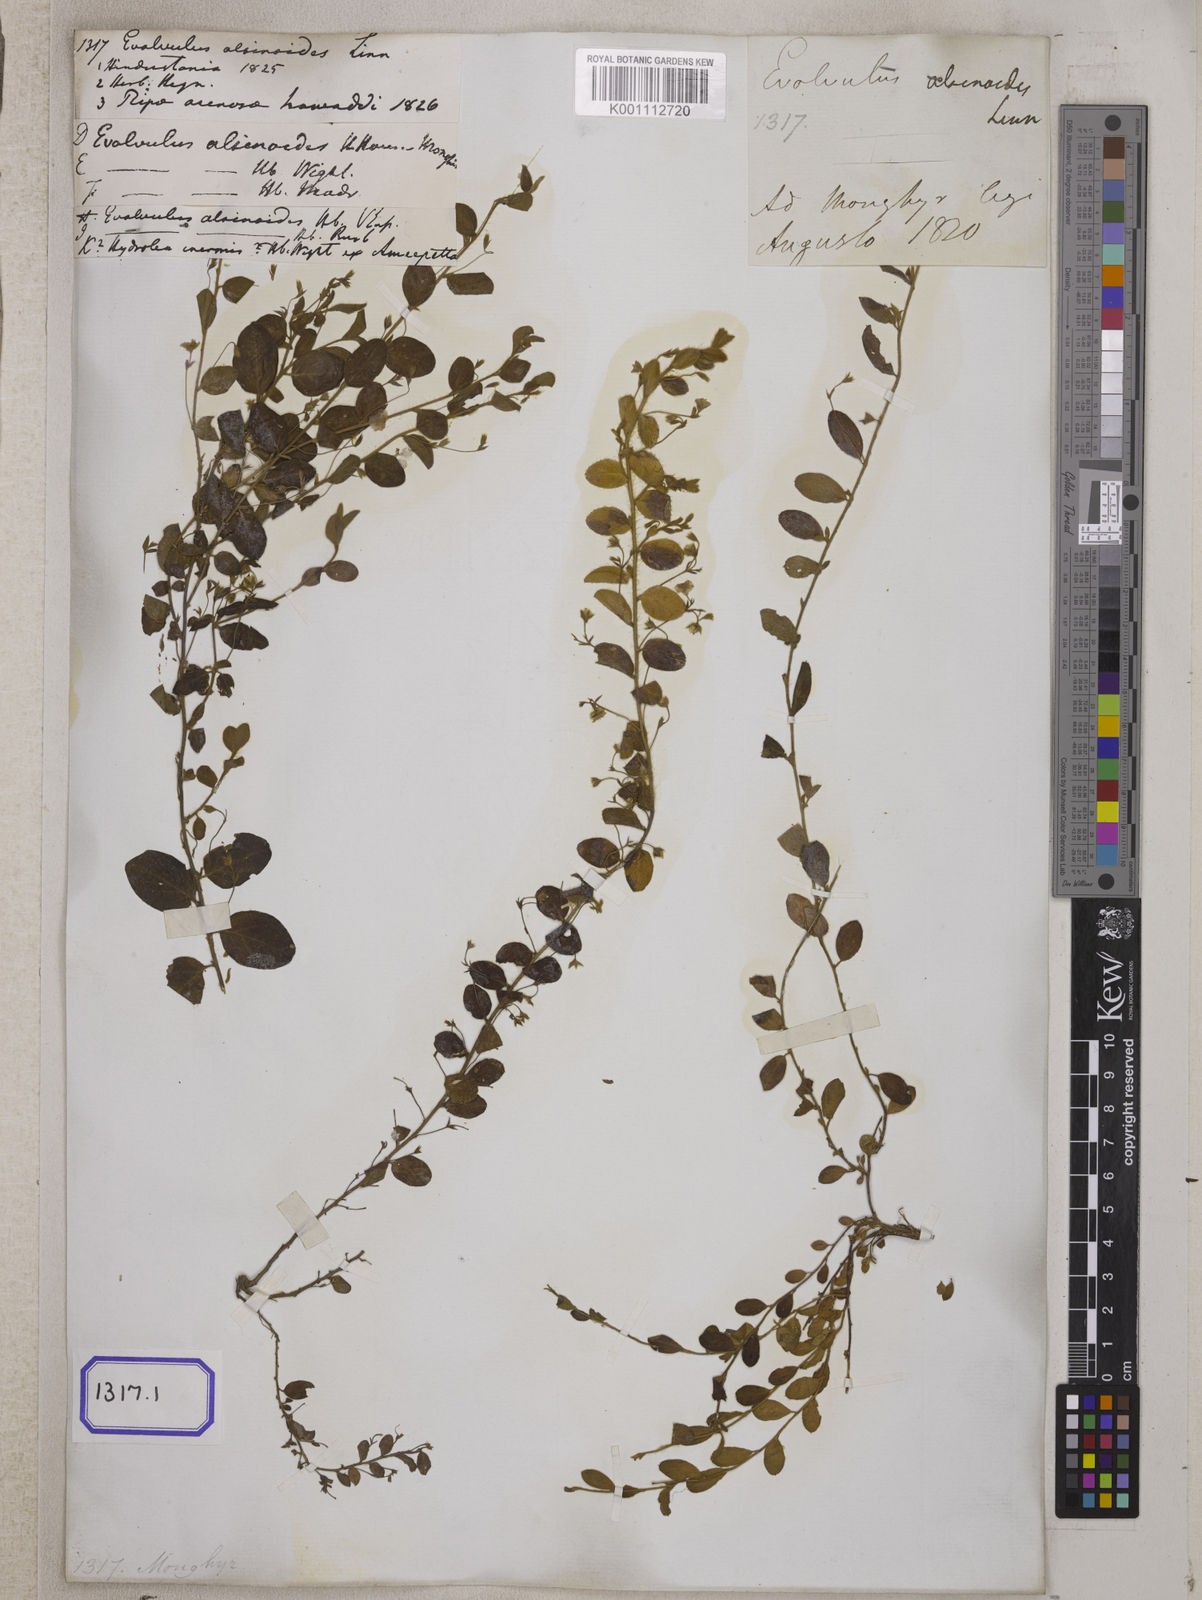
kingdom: Plantae
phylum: Tracheophyta
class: Magnoliopsida
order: Solanales
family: Convolvulaceae
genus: Evolvulus
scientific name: Evolvulus alsinoides
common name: Slender dwarf morning-glory
